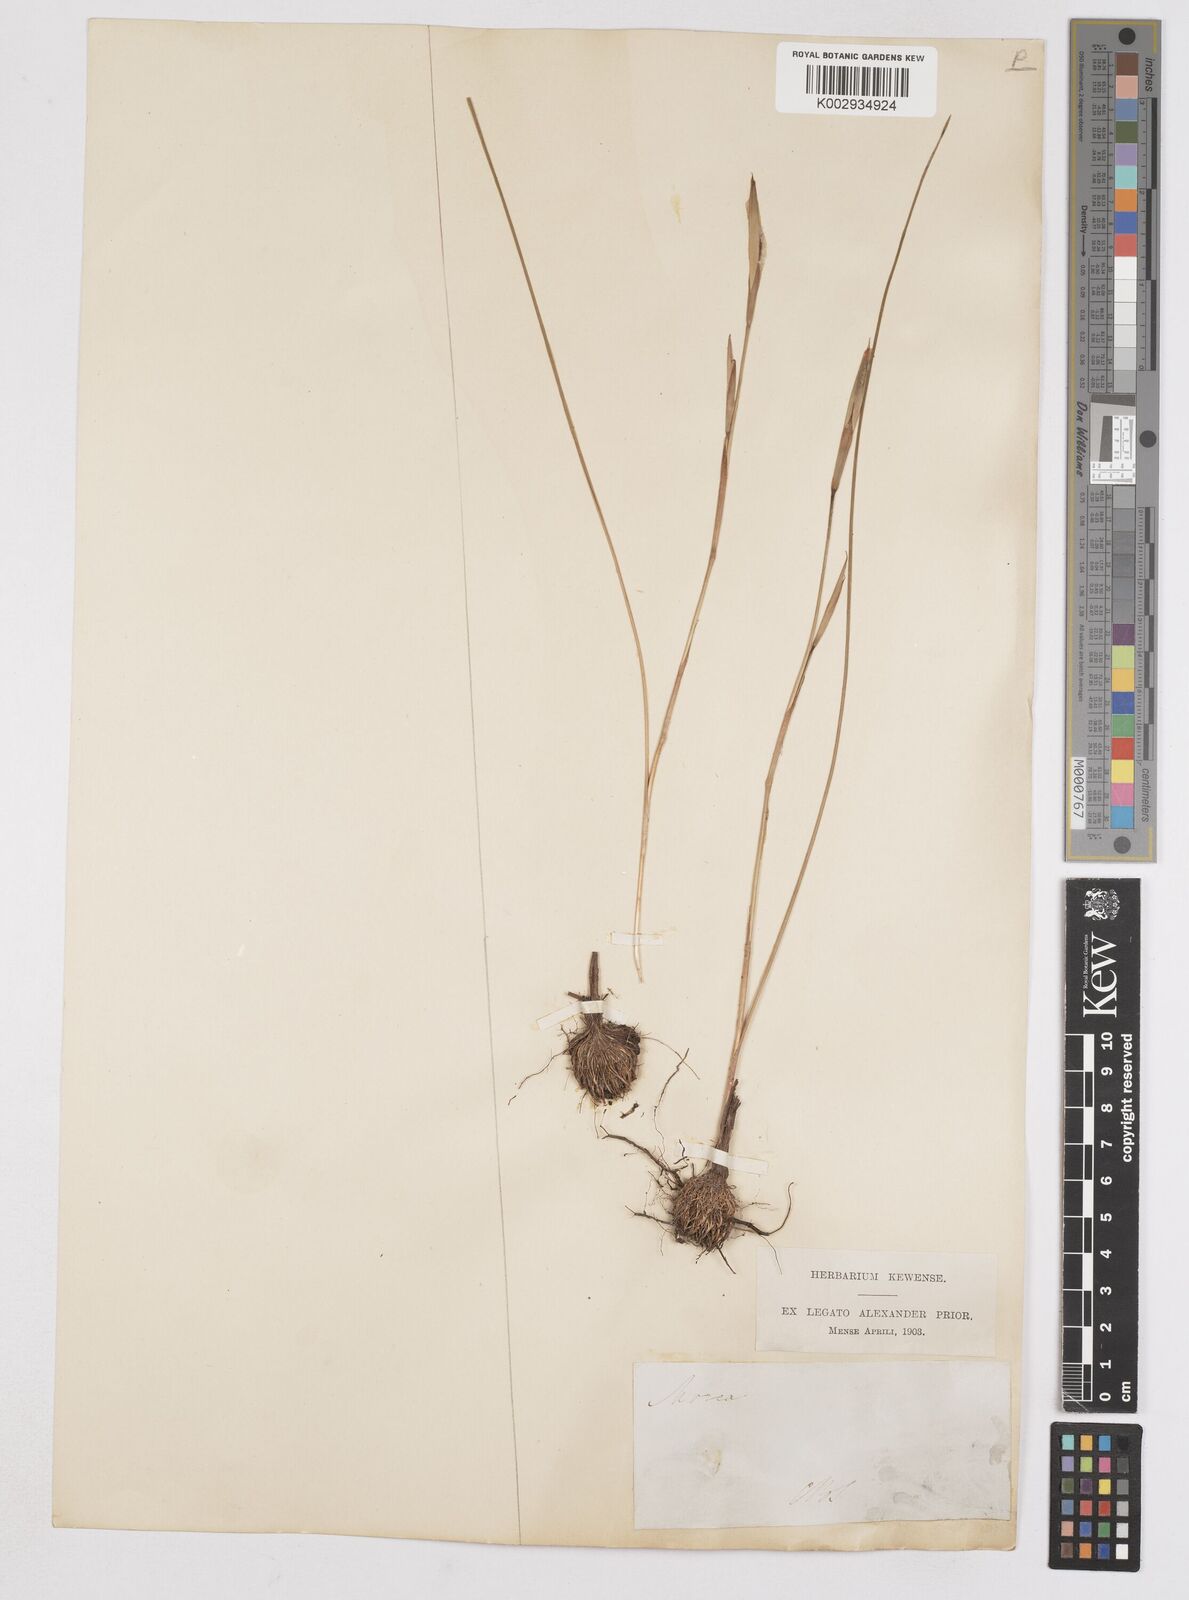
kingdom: Plantae
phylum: Tracheophyta
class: Liliopsida
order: Asparagales
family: Iridaceae
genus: Moraea
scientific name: Moraea
